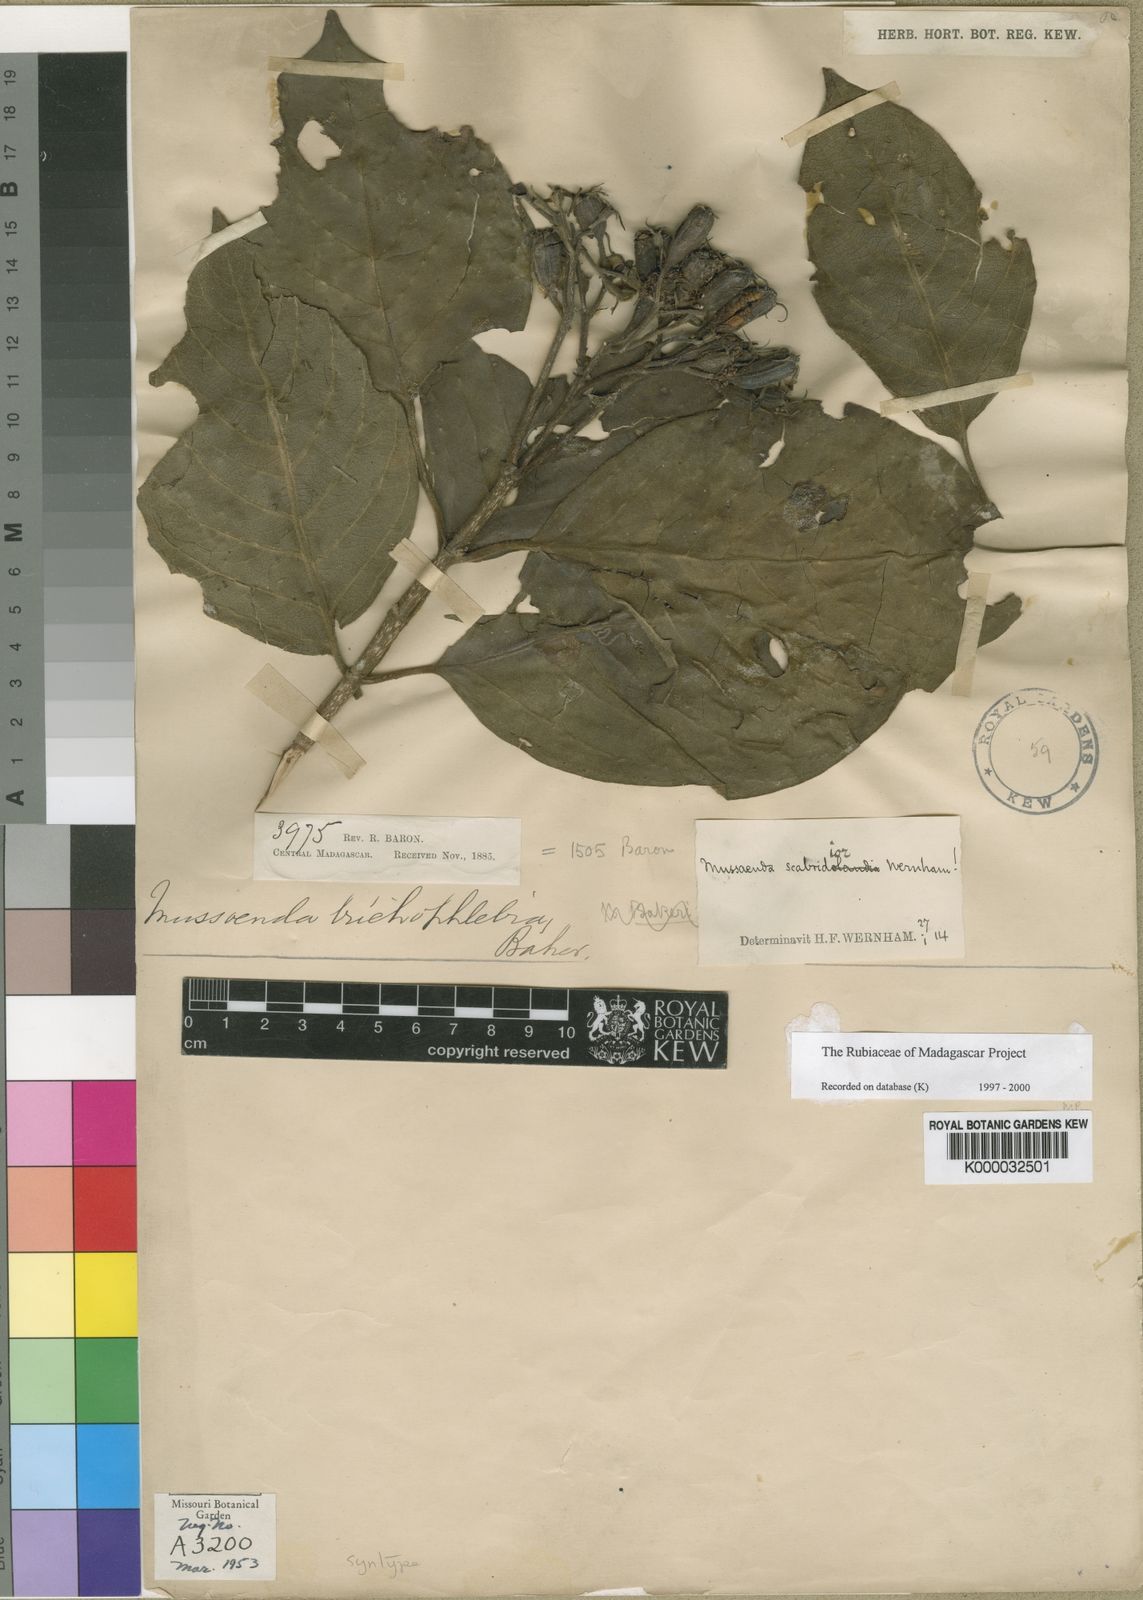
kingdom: Plantae
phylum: Tracheophyta
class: Magnoliopsida
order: Gentianales
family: Rubiaceae
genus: Bremeria
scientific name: Bremeria pervillei
